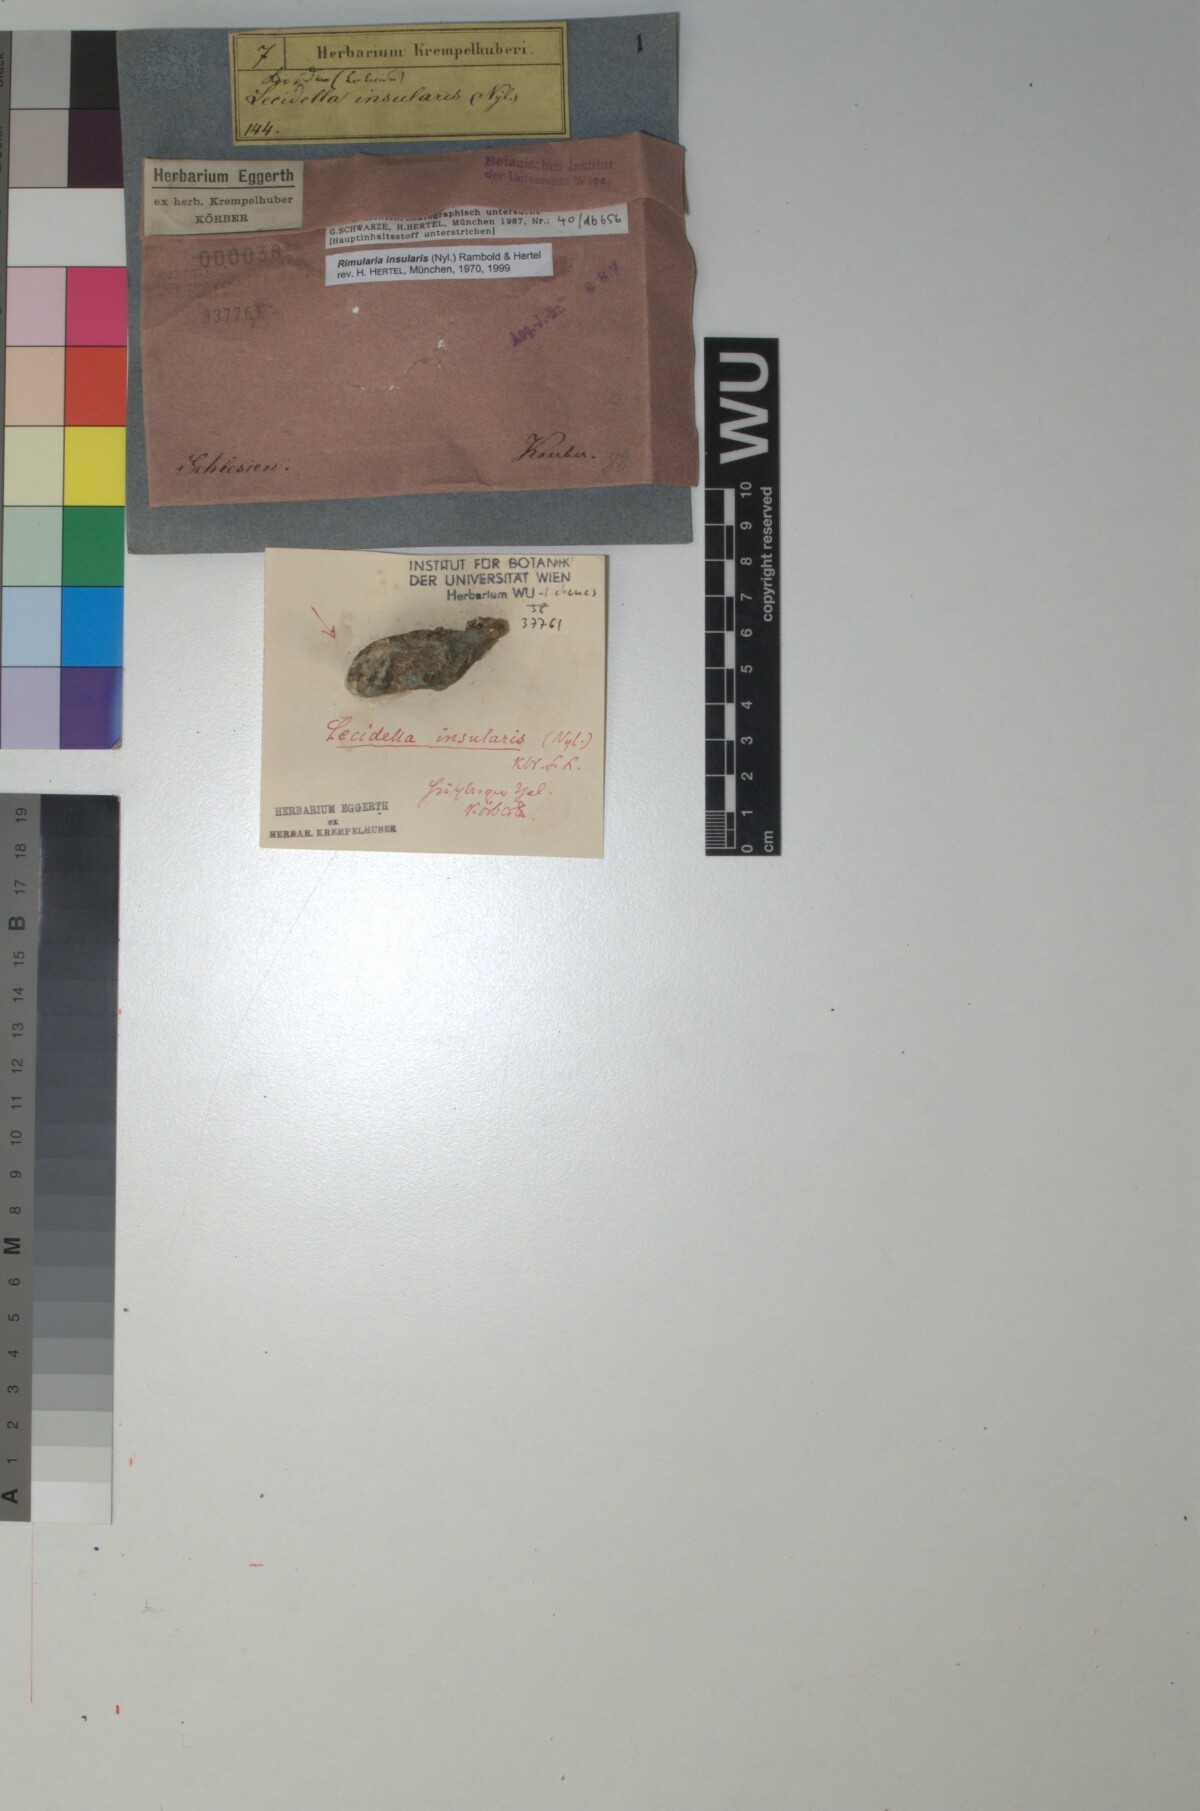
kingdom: Fungi
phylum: Ascomycota
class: Lecanoromycetes
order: Baeomycetales
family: Trapeliaceae
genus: Lambiella
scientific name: Lambiella insularis
